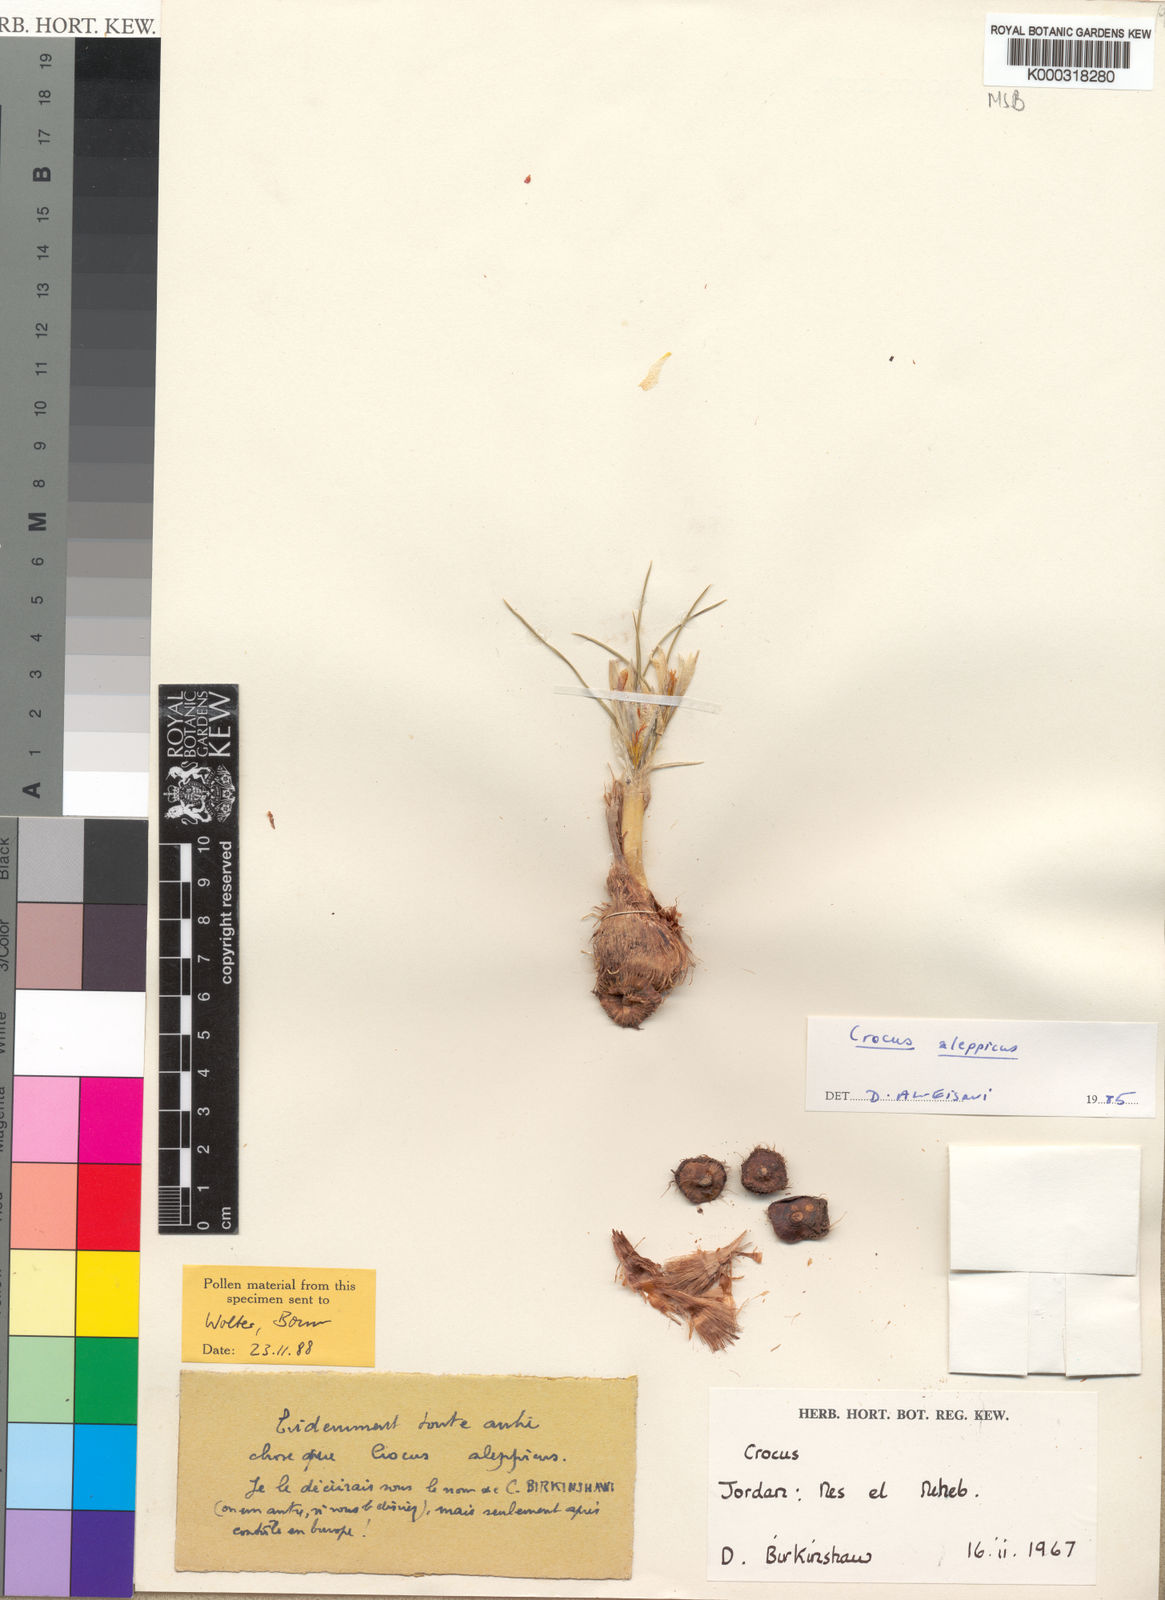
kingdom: Plantae
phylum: Tracheophyta
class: Liliopsida
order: Asparagales
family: Iridaceae
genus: Crocus
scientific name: Crocus aleppicus
